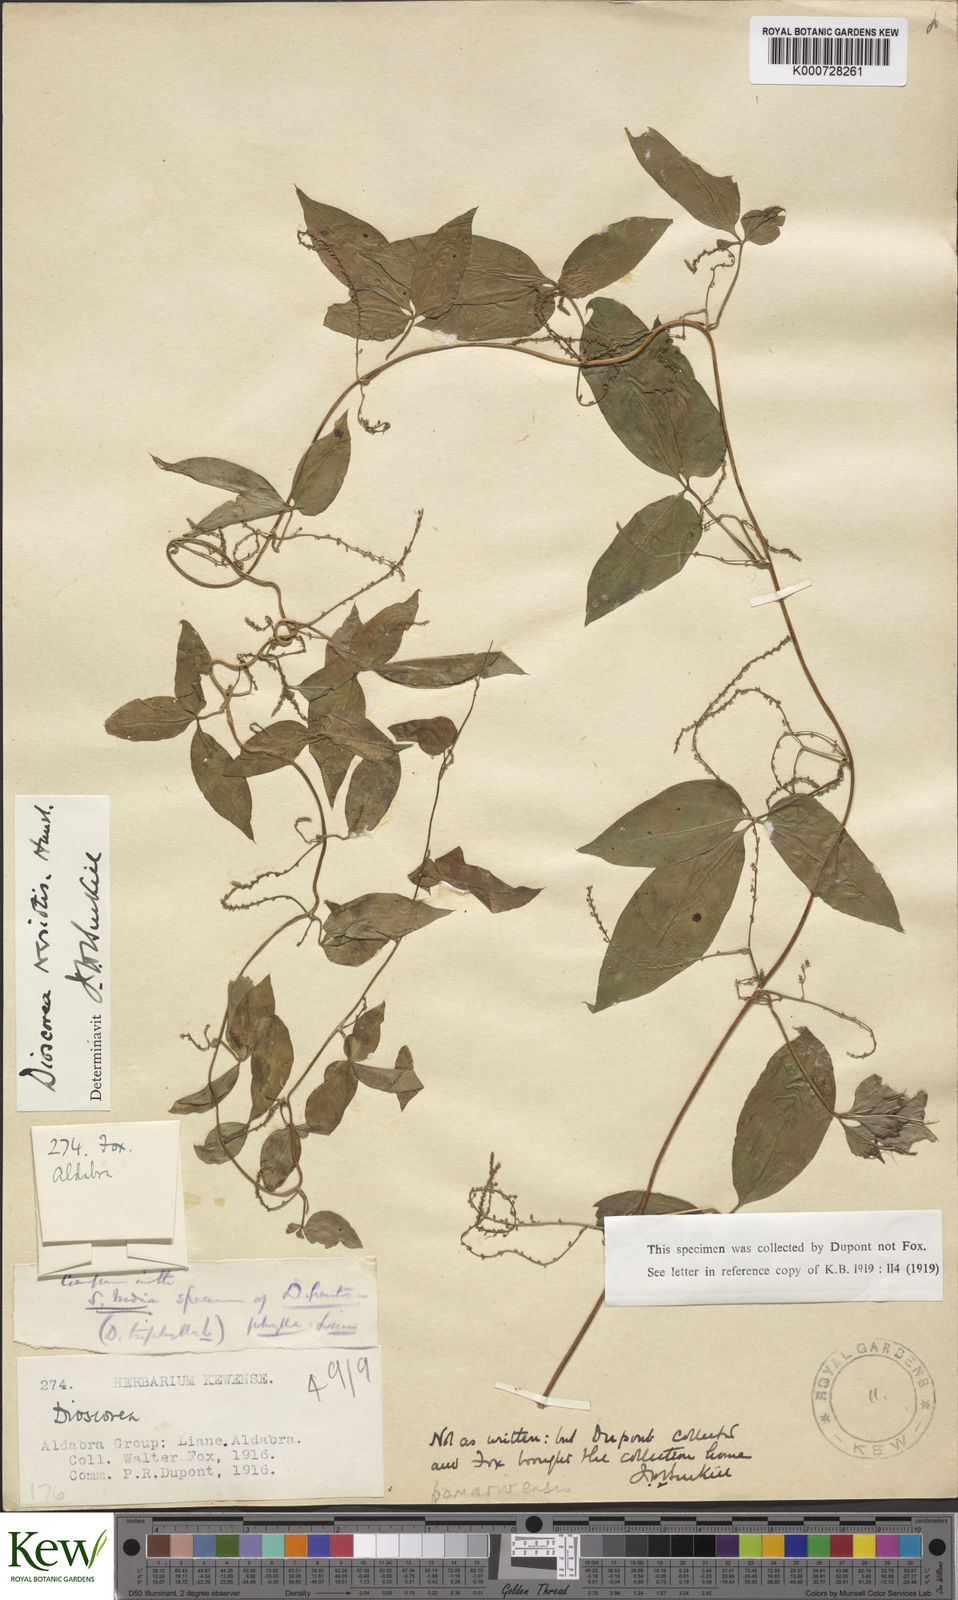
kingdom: Plantae
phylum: Tracheophyta
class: Liliopsida
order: Dioscoreales
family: Dioscoreaceae
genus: Dioscorea
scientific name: Dioscorea bemarivensis
